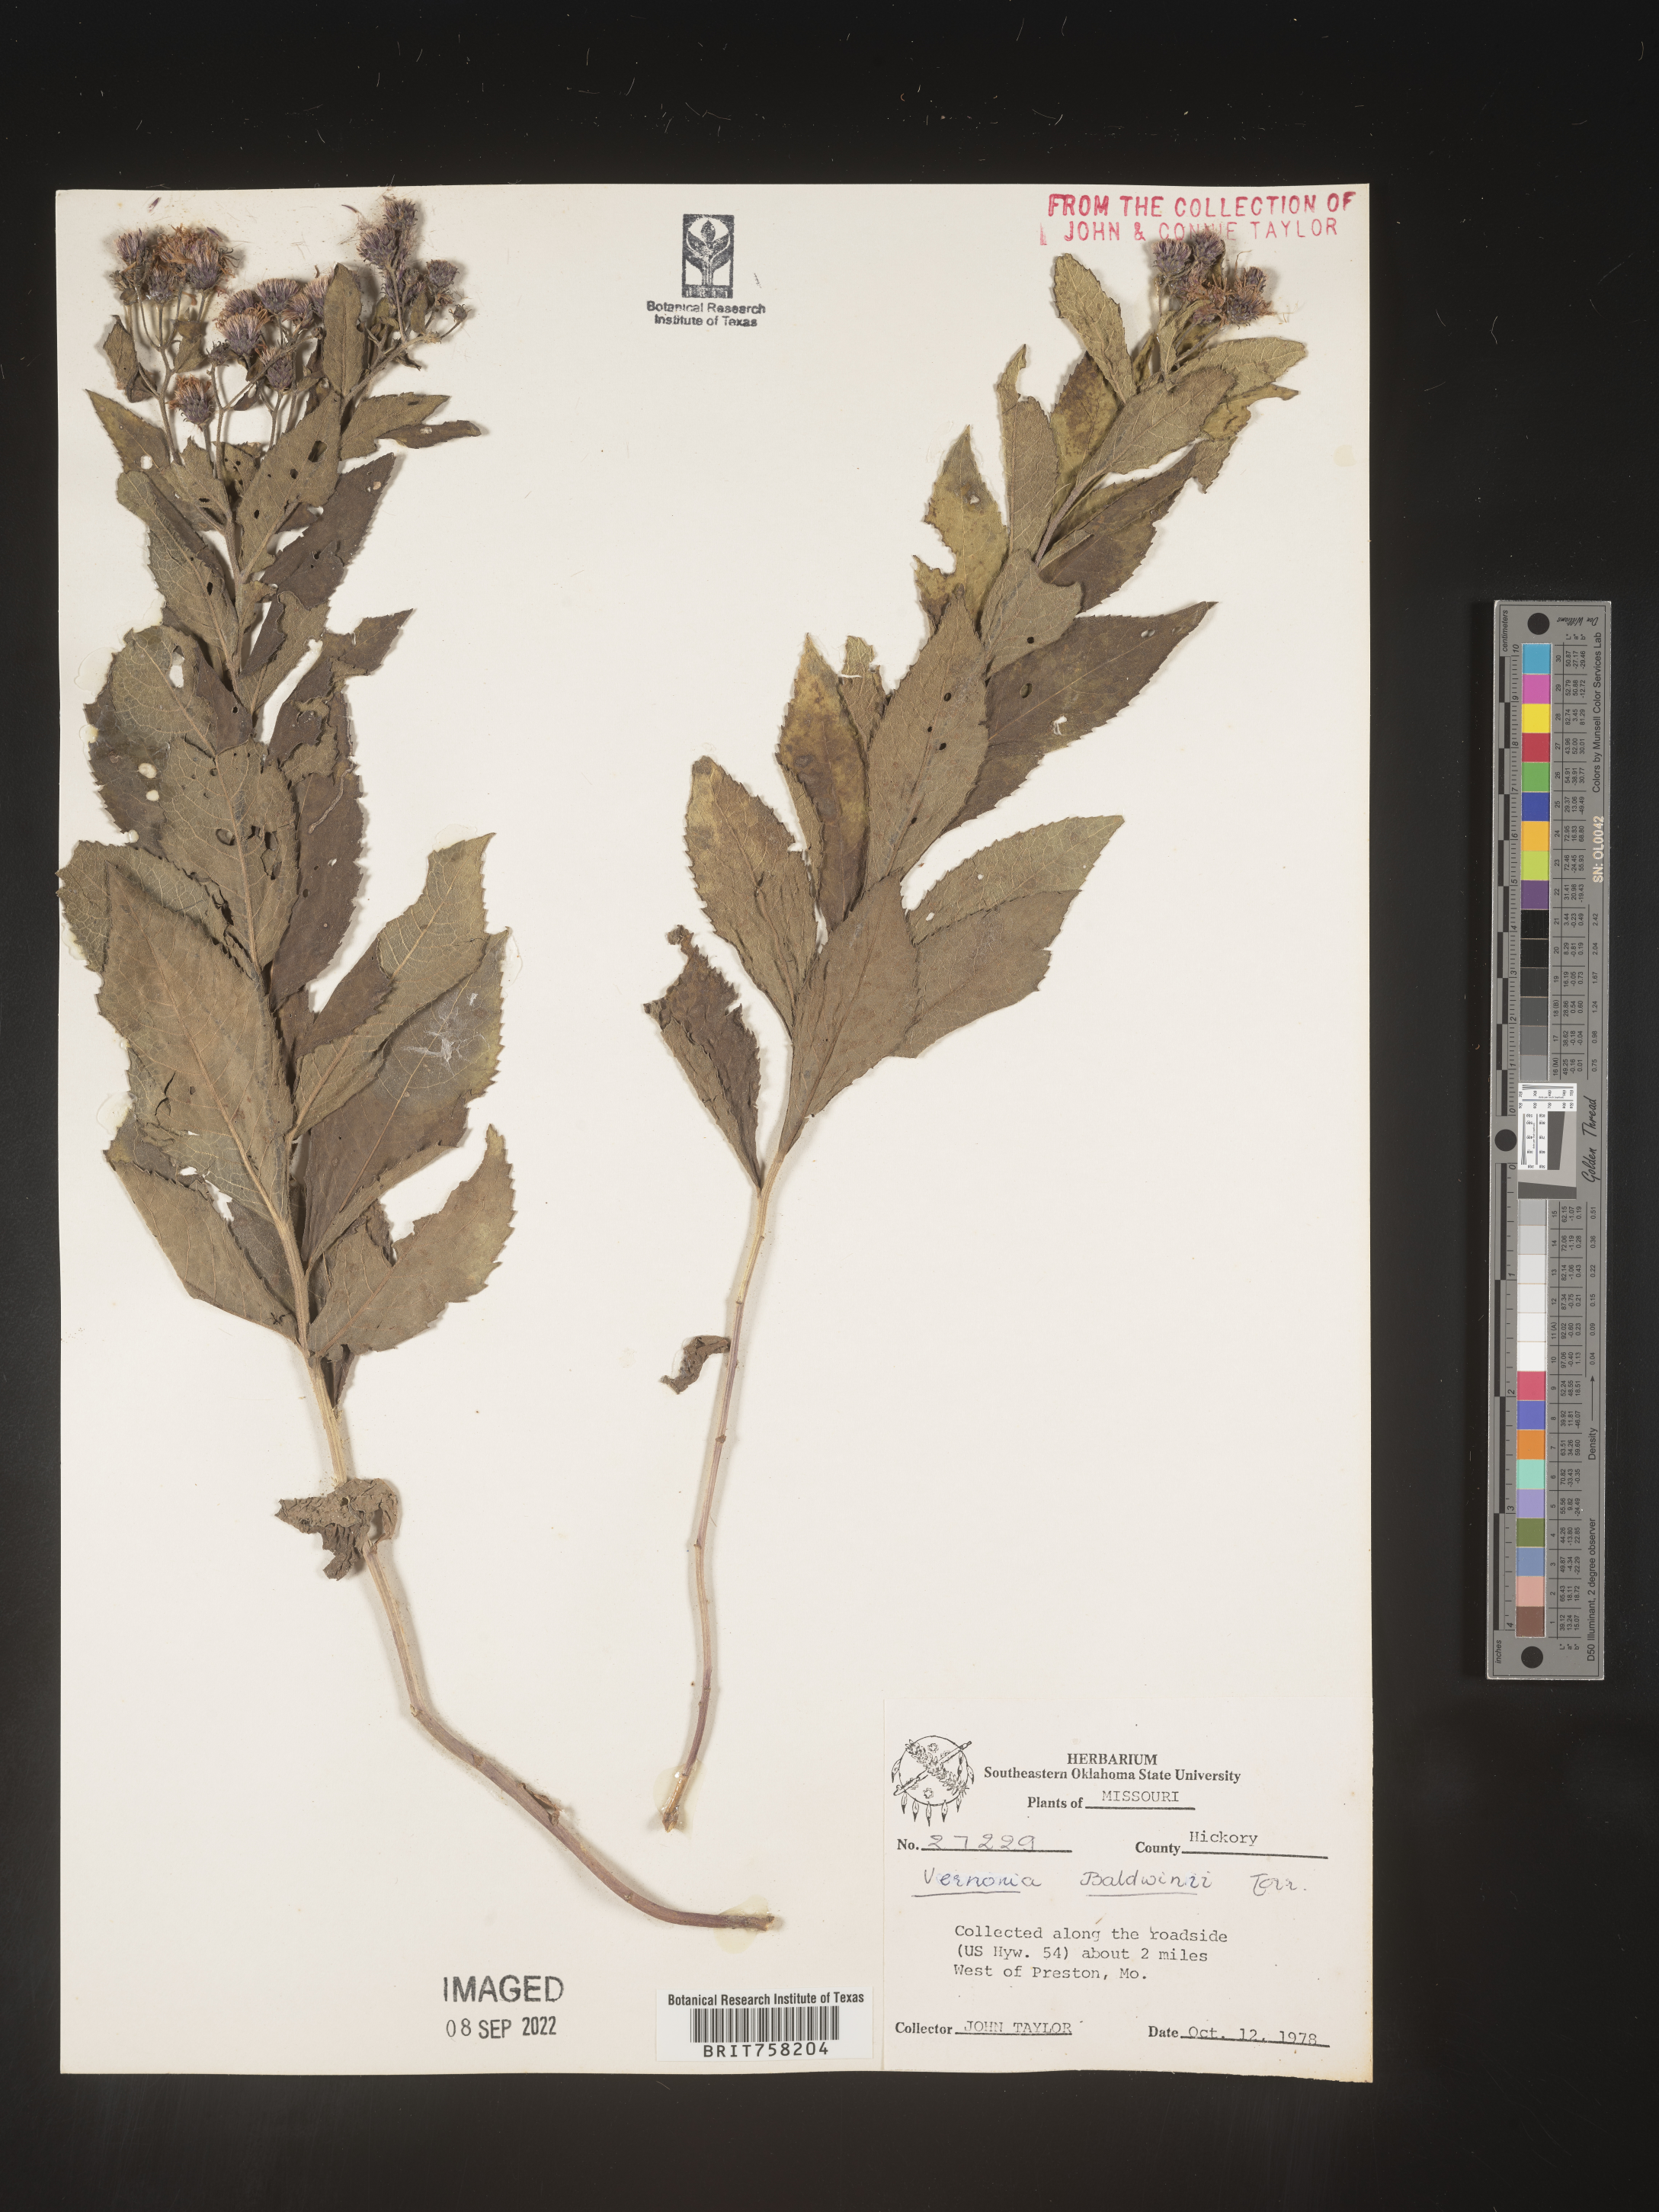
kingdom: Plantae
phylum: Tracheophyta
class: Magnoliopsida
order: Asterales
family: Asteraceae
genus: Vernonia
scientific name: Vernonia baldwinii
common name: Western ironweed
